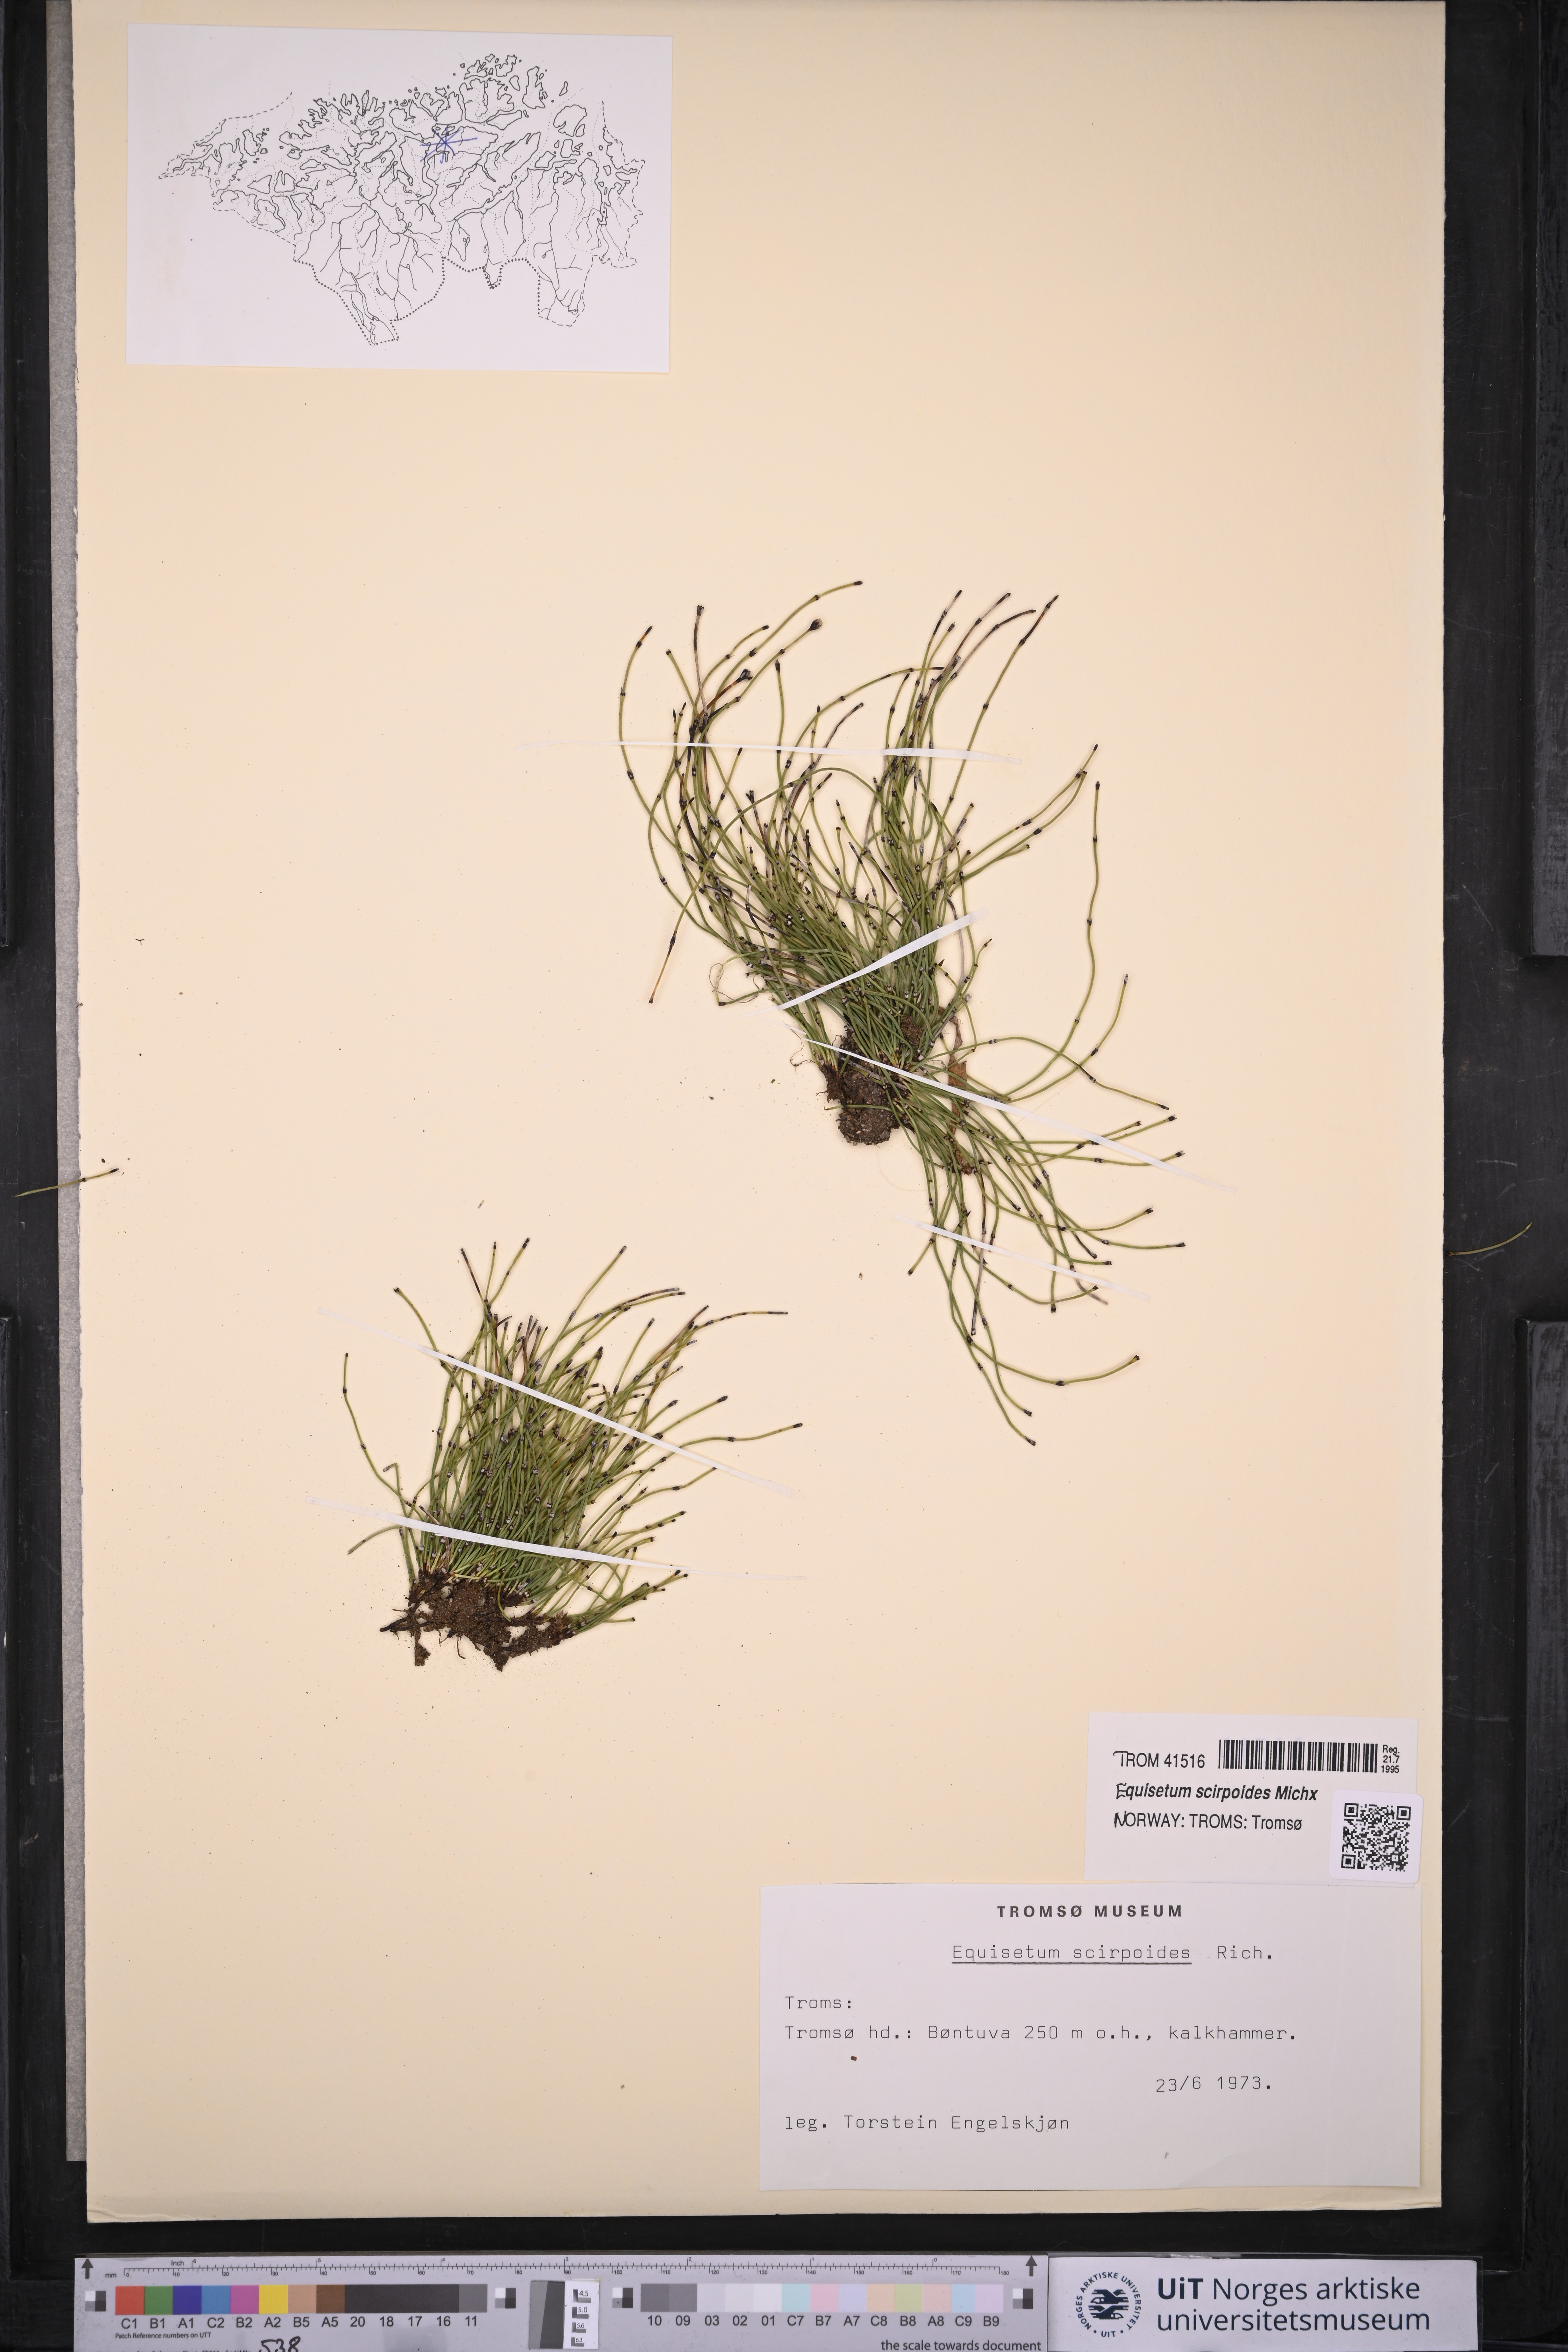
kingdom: Plantae
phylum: Tracheophyta
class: Polypodiopsida
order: Equisetales
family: Equisetaceae
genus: Equisetum
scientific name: Equisetum scirpoides
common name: Delicate horsetail
